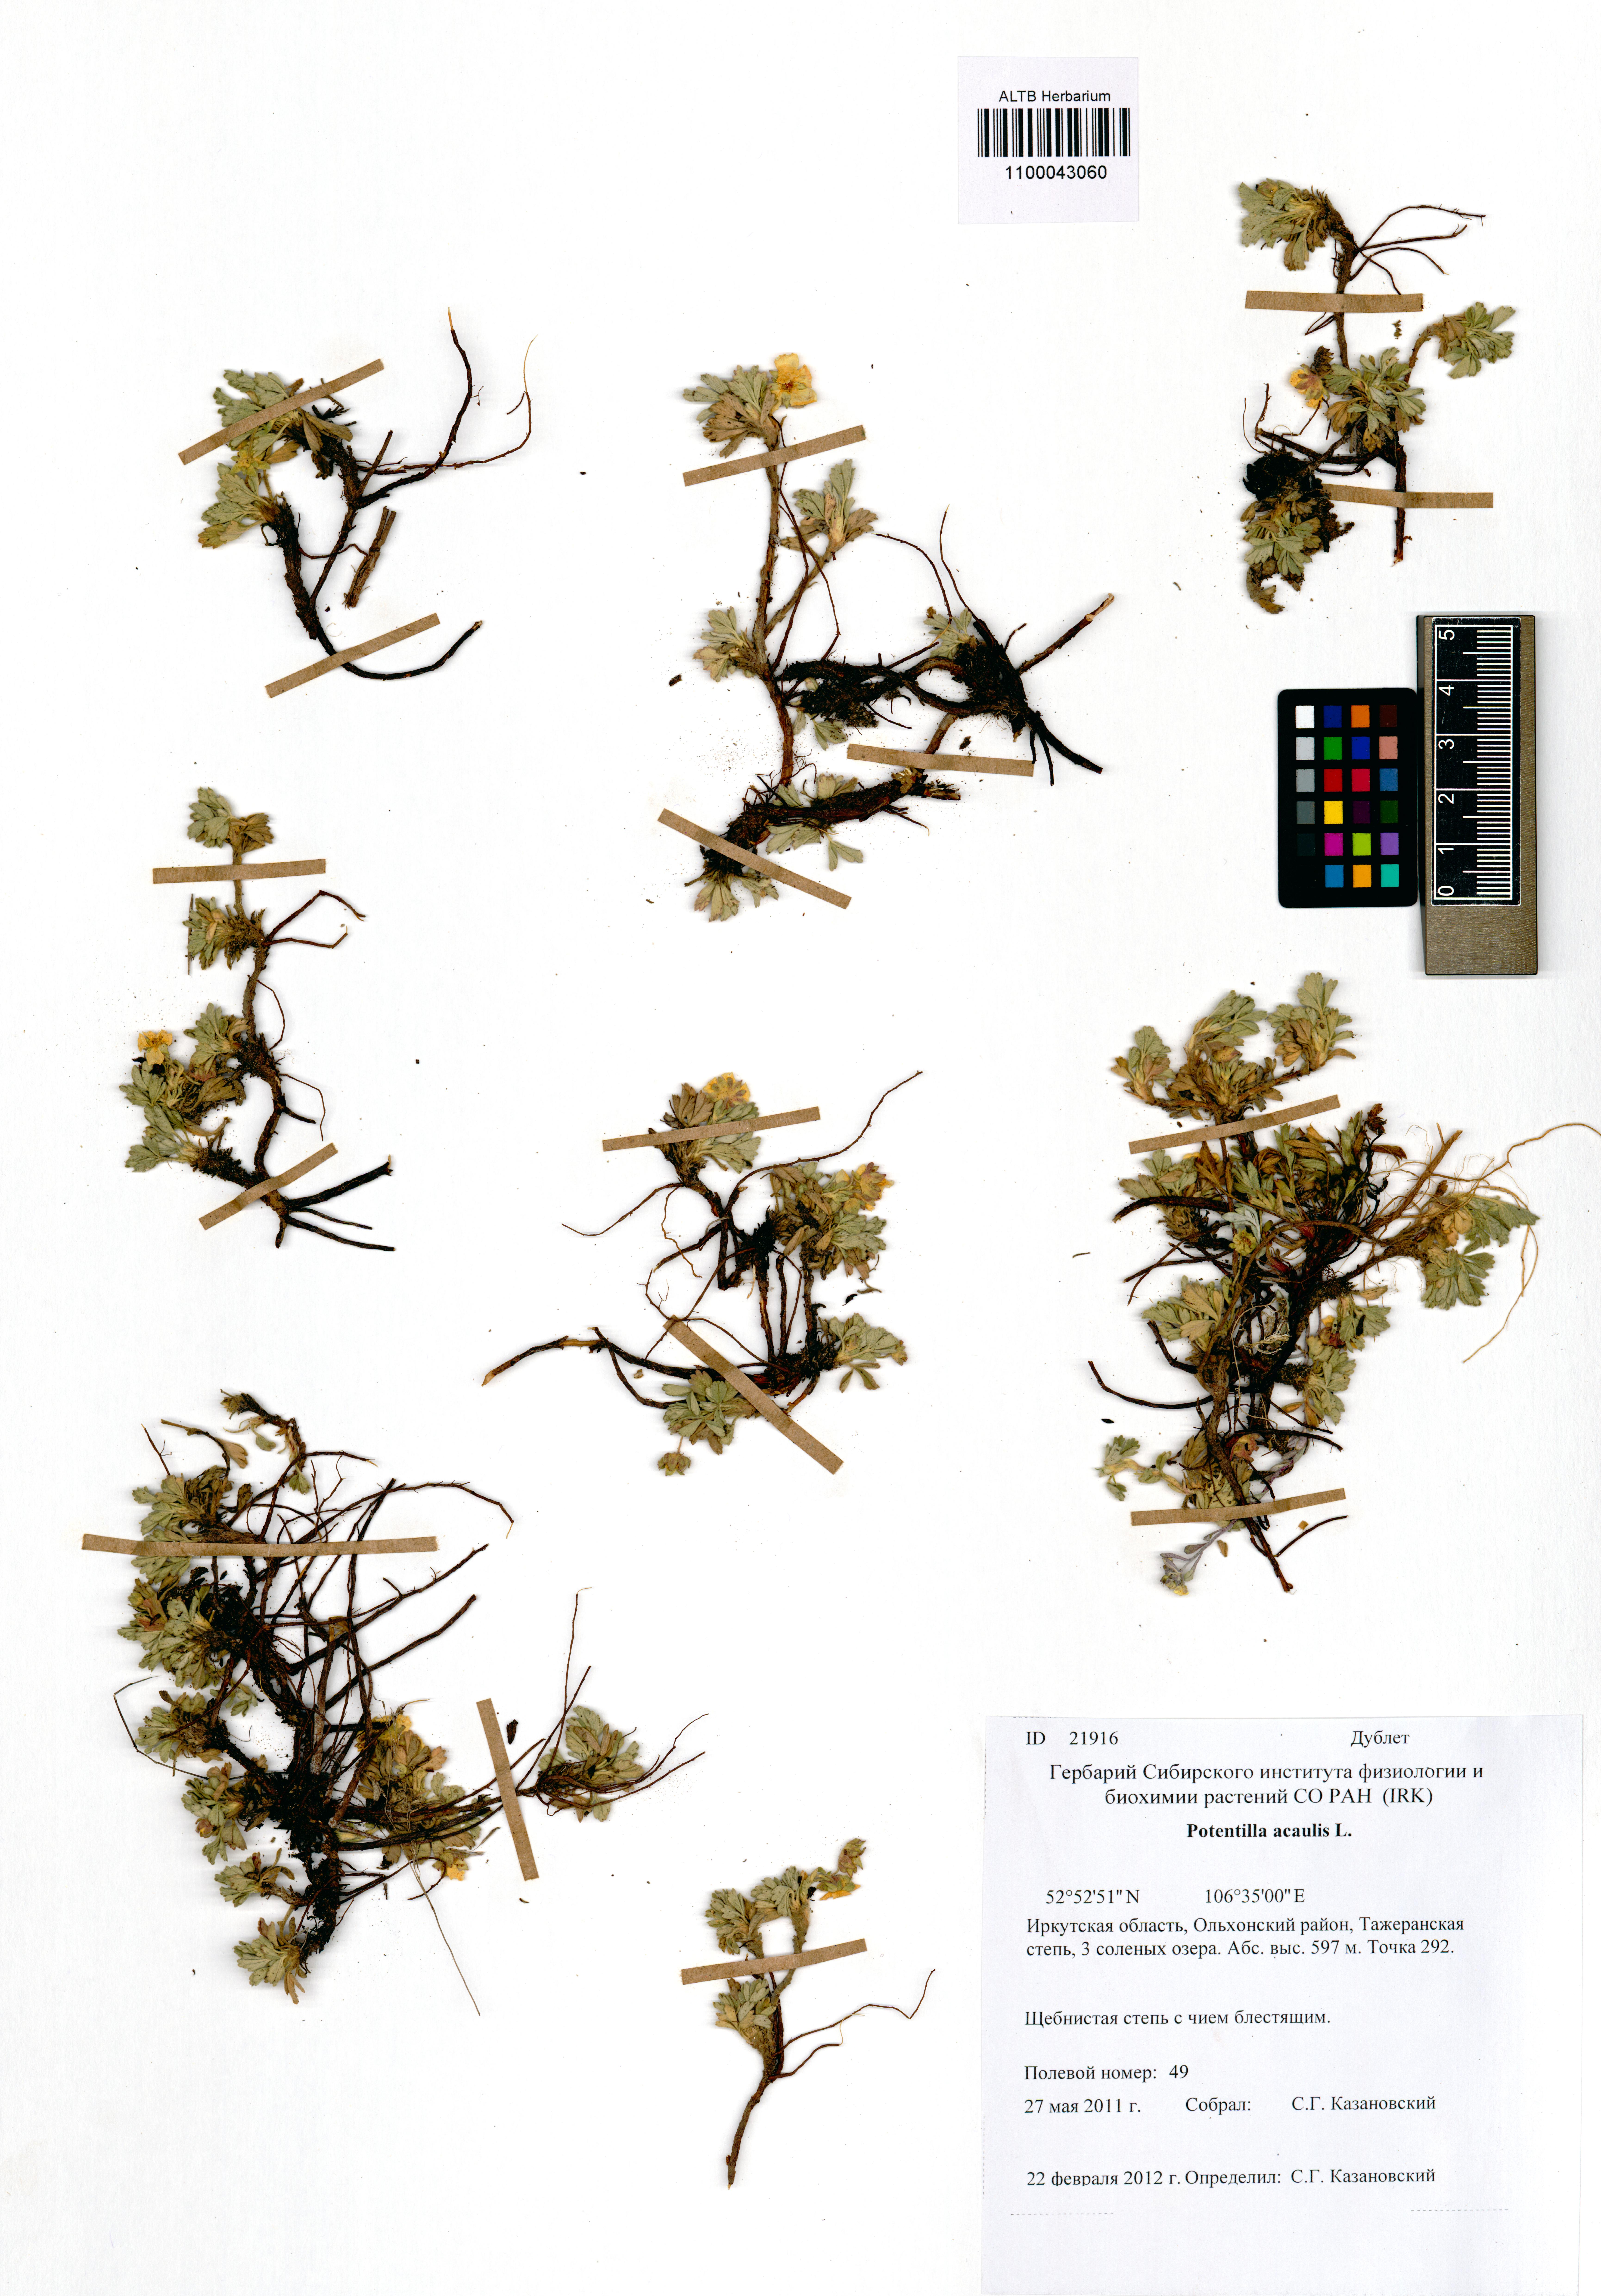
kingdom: Plantae
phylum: Tracheophyta
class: Magnoliopsida
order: Rosales
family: Rosaceae
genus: Potentilla
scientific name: Potentilla acaulis
